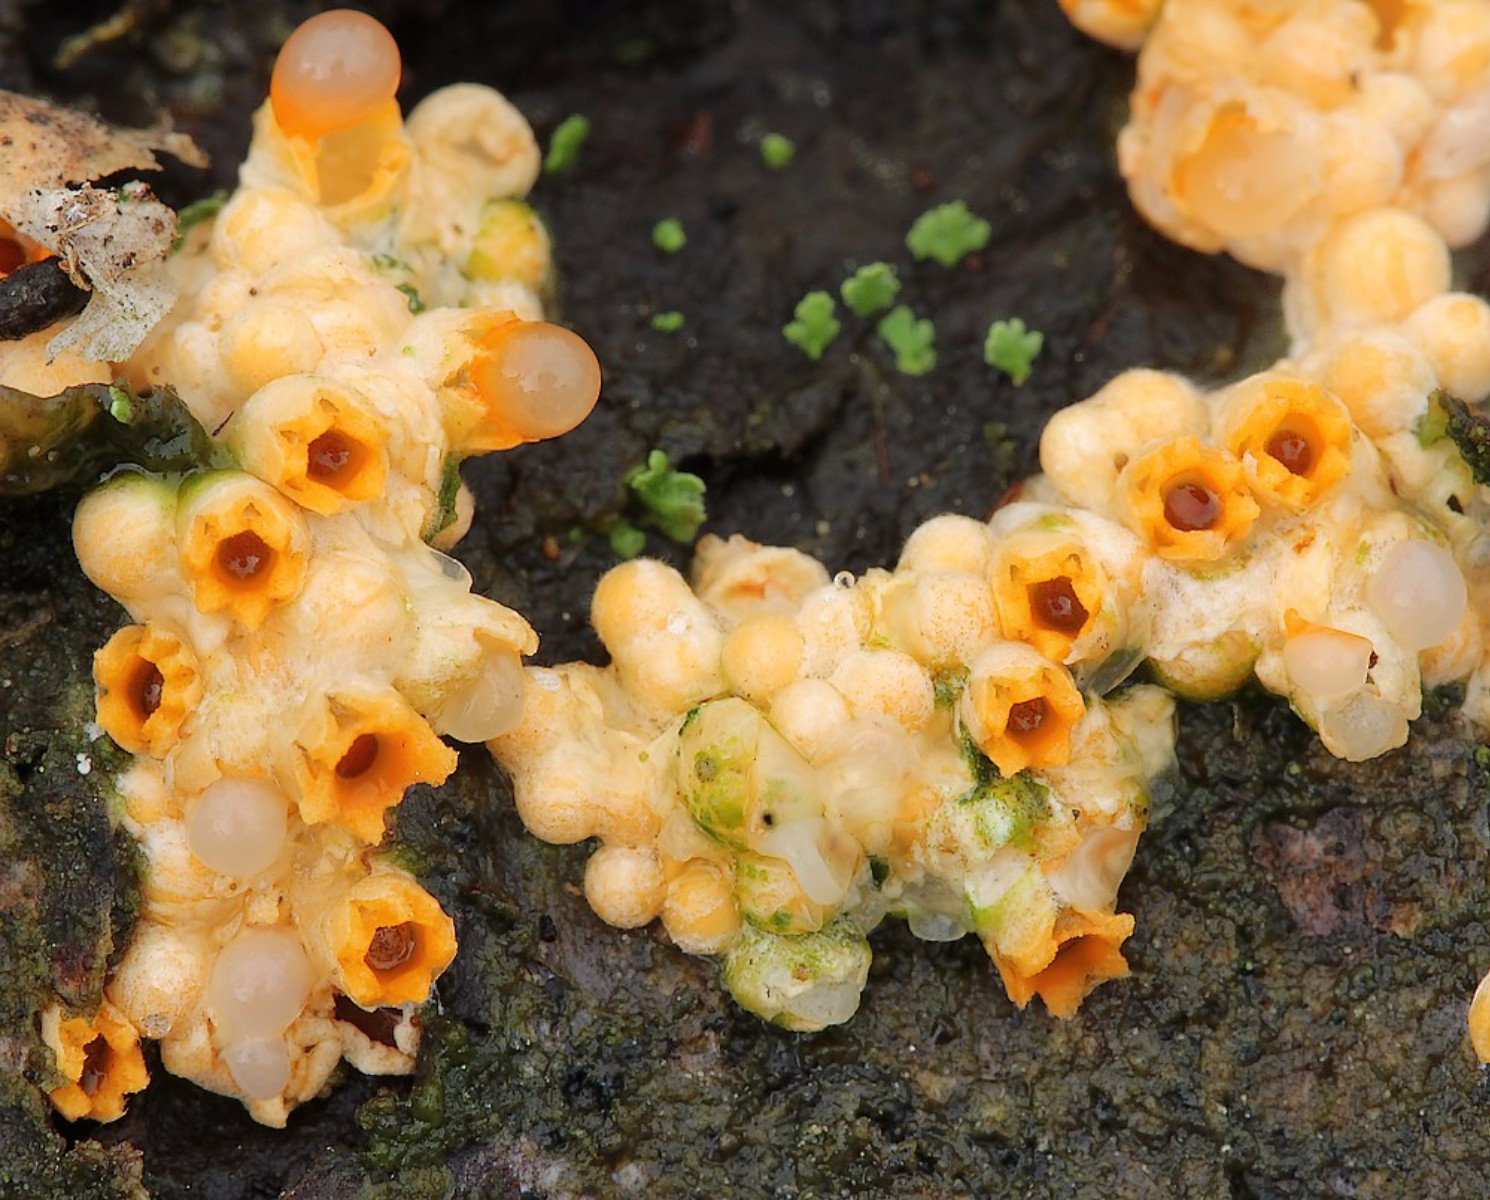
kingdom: Fungi
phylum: Basidiomycota
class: Agaricomycetes
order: Geastrales
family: Geastraceae
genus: Sphaerobolus
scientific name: Sphaerobolus stellatus
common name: bombekaster
